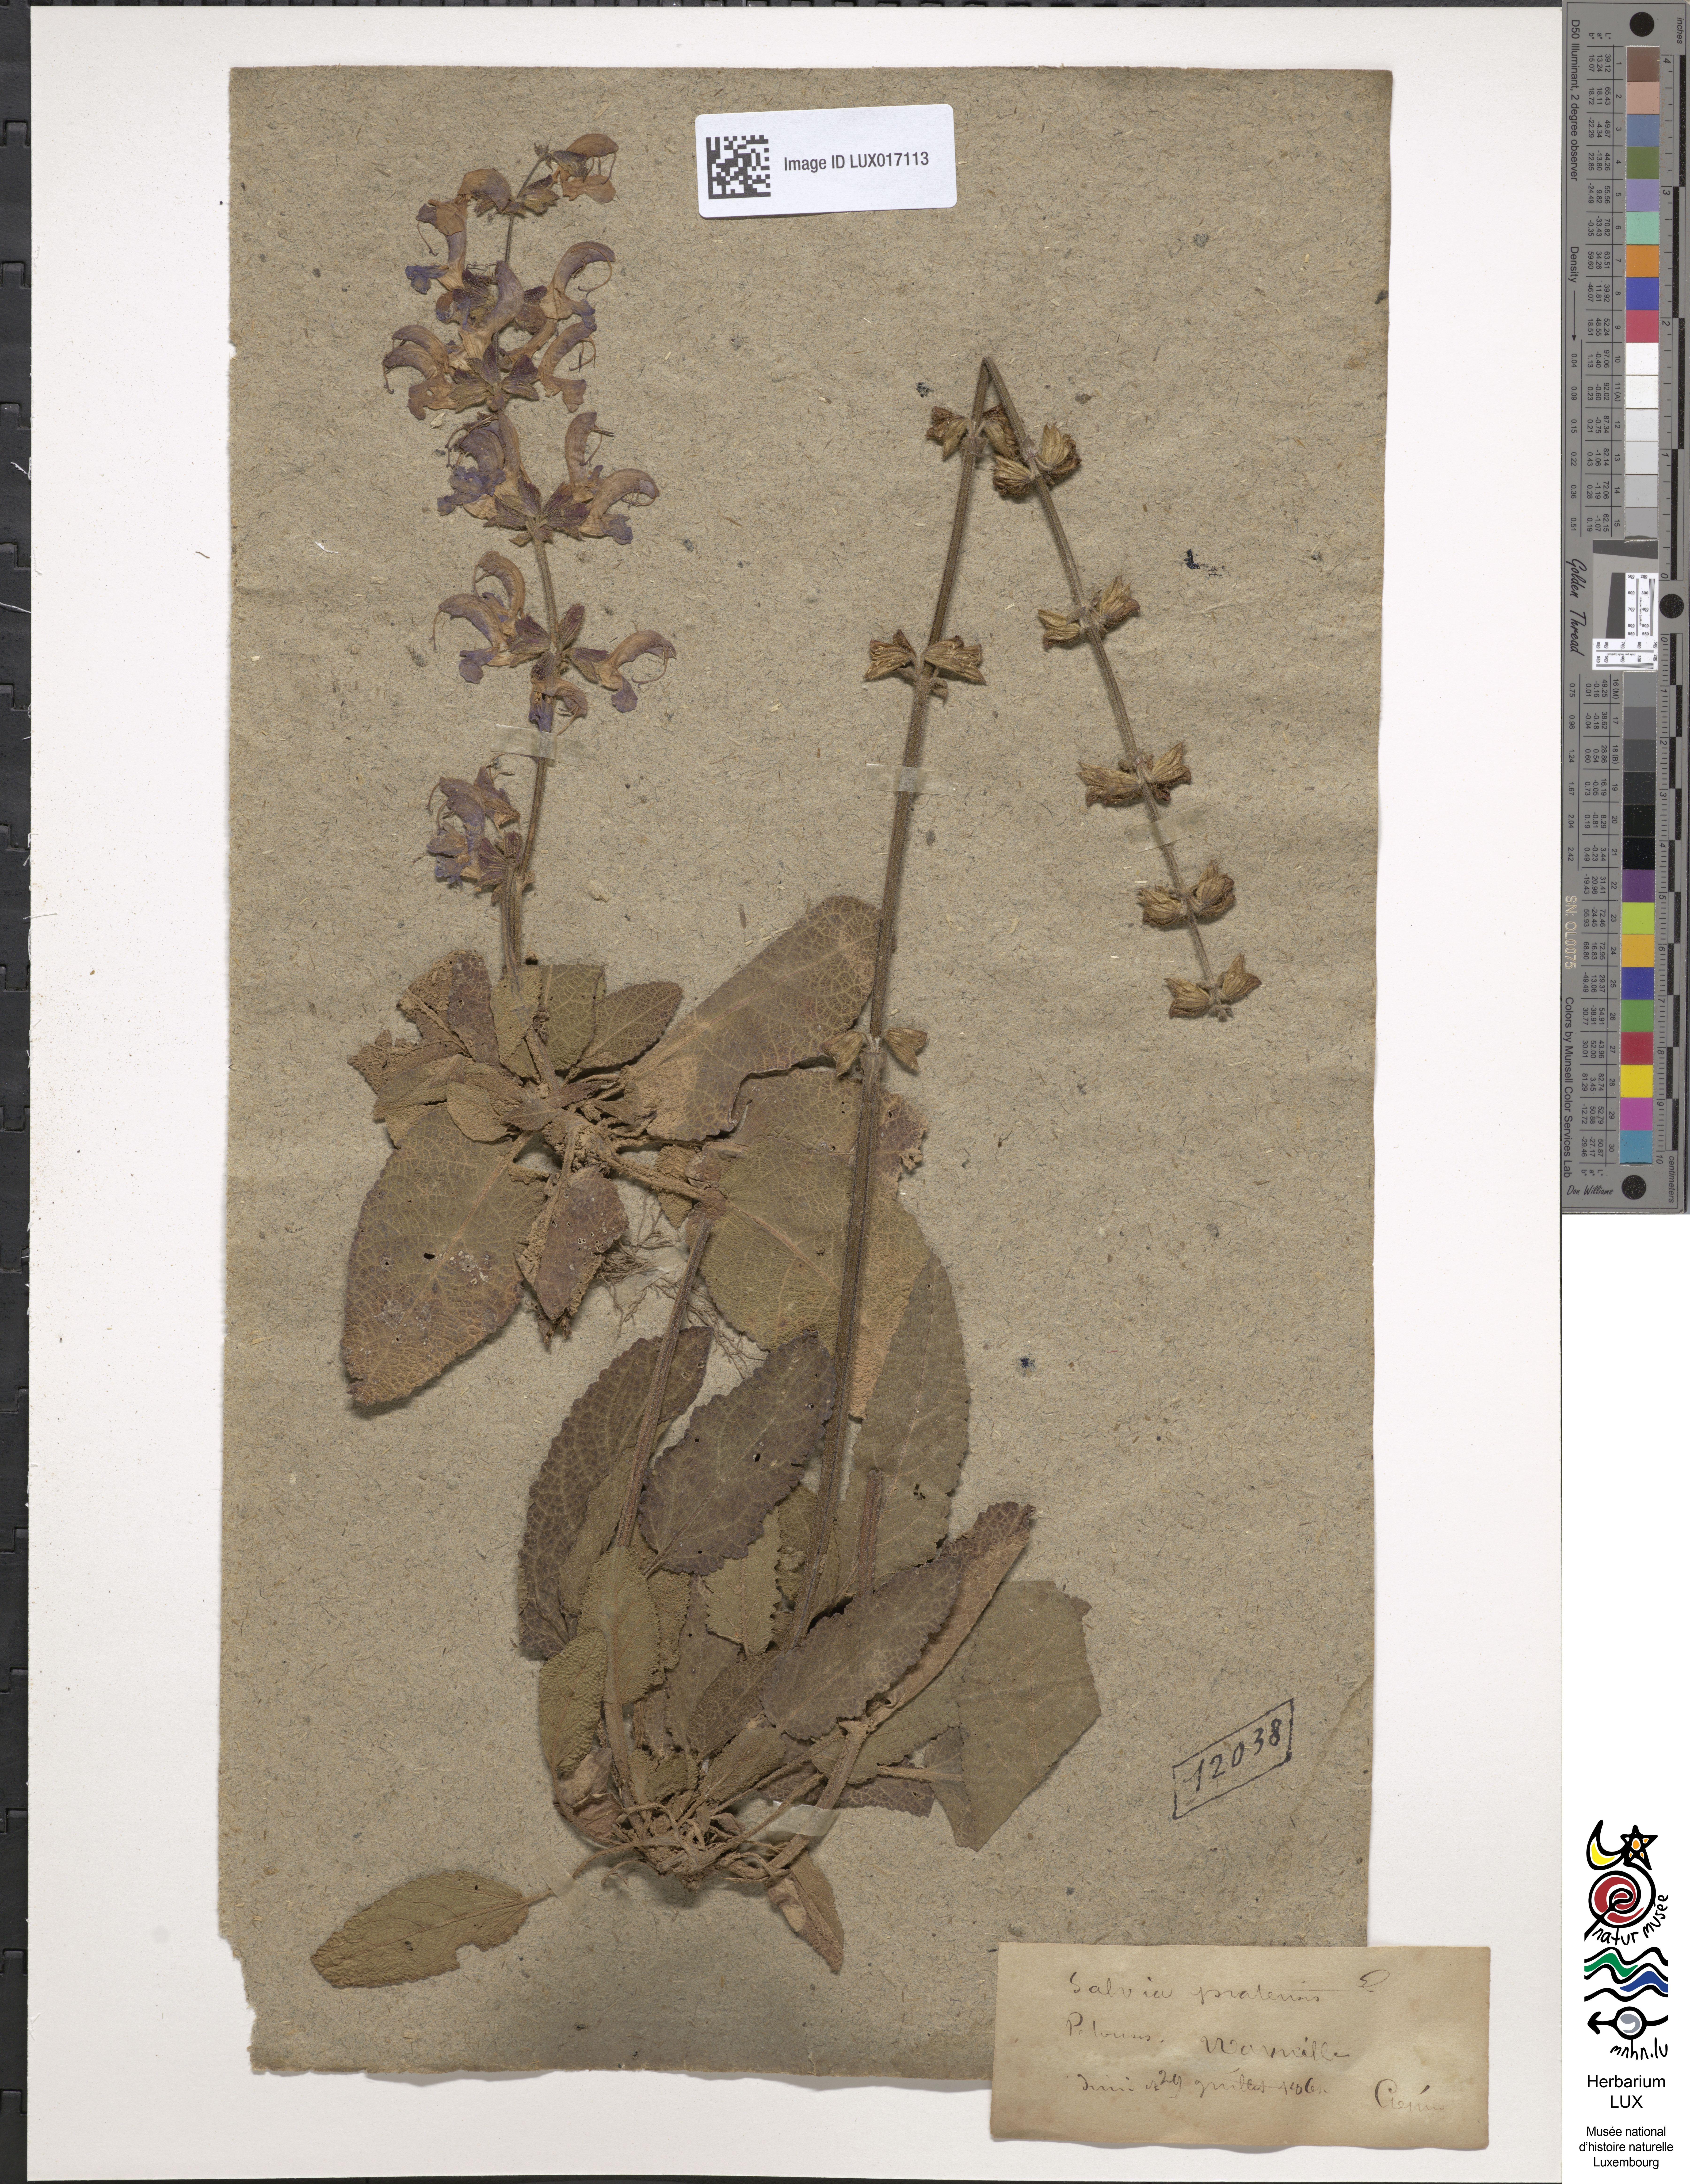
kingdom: Plantae
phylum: Tracheophyta
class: Magnoliopsida
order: Lamiales
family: Lamiaceae
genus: Salvia
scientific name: Salvia pratensis
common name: Meadow sage
